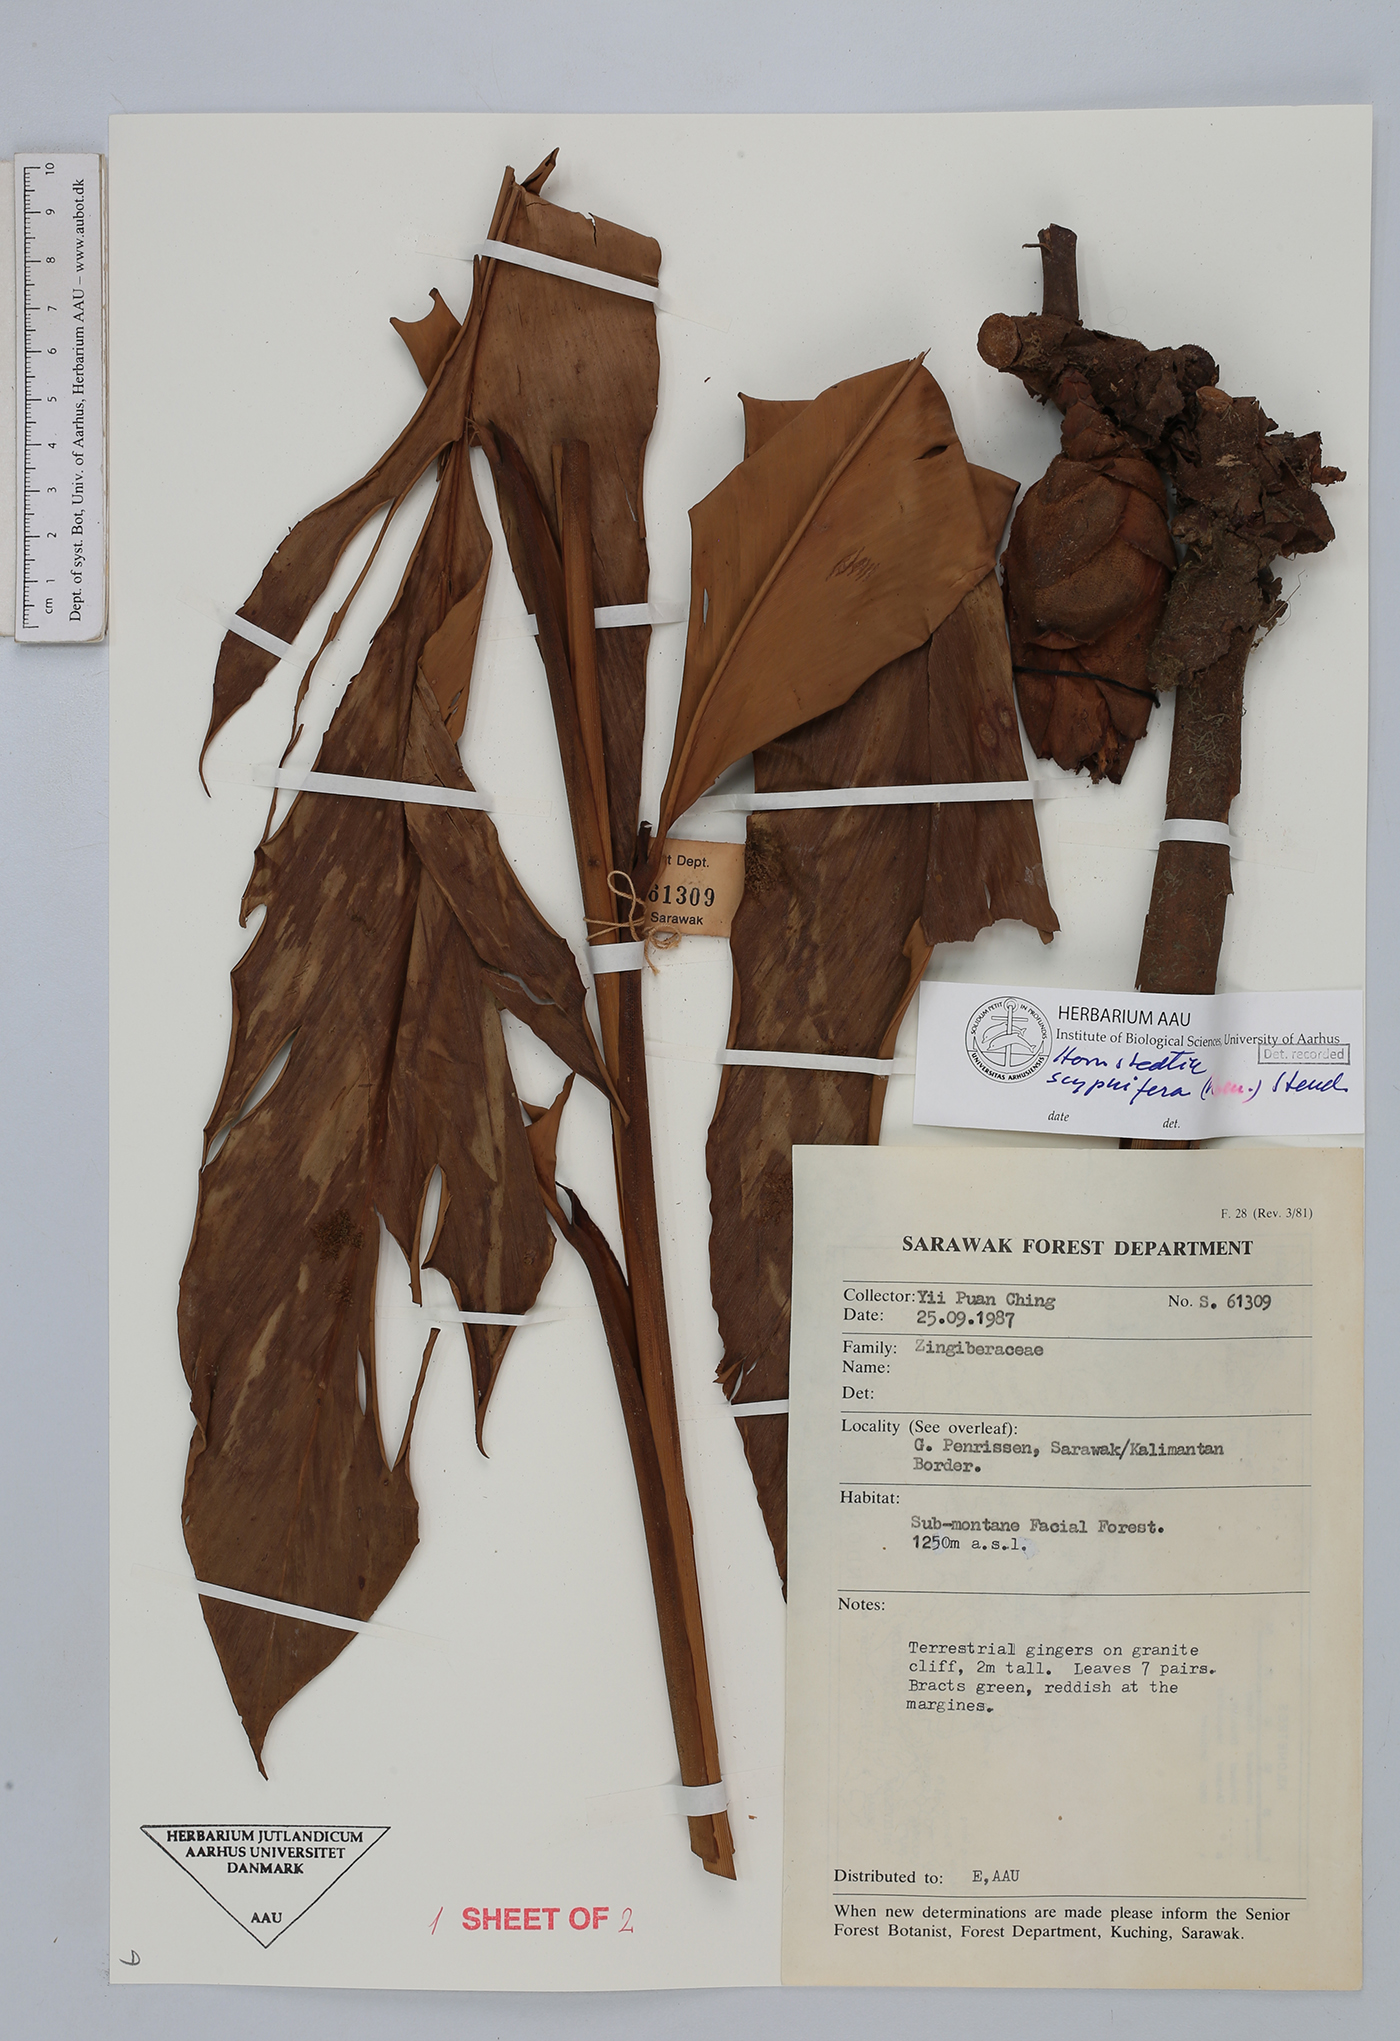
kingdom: Plantae
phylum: Tracheophyta
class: Liliopsida
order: Zingiberales
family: Zingiberaceae
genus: Hornstedtia
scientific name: Hornstedtia scyphifera
